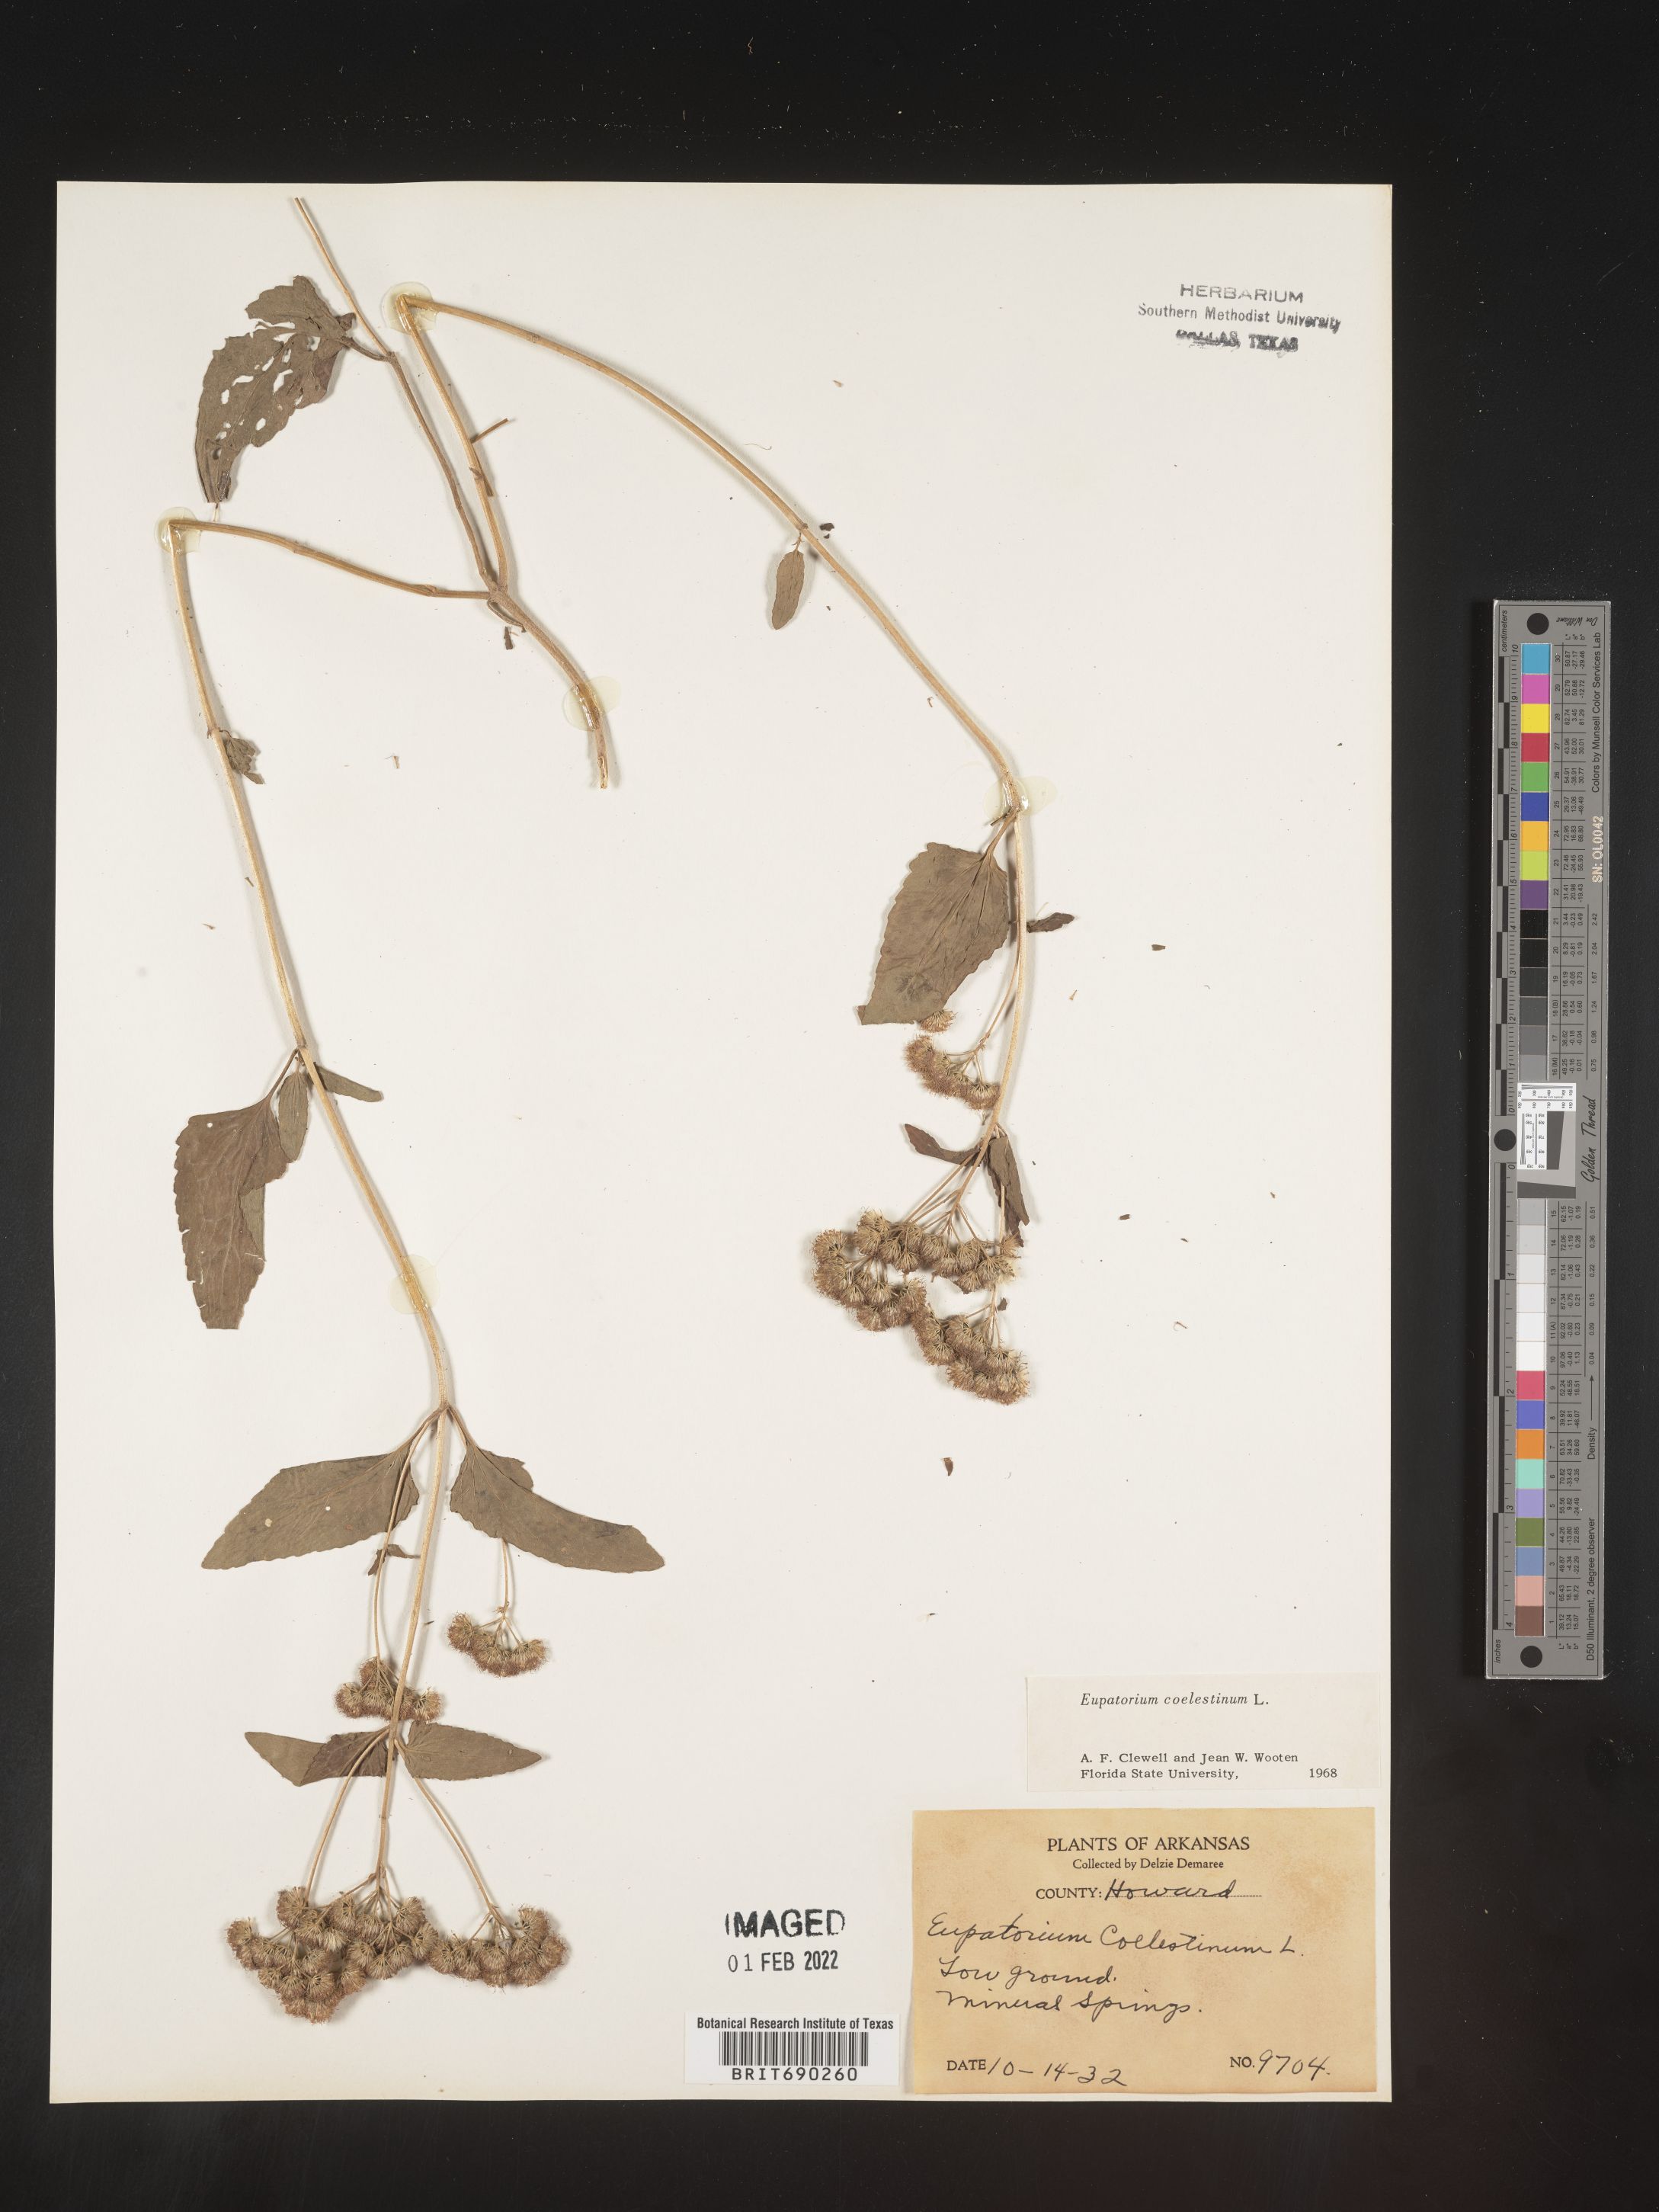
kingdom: Plantae
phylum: Tracheophyta
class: Magnoliopsida
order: Asterales
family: Asteraceae
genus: Conoclinium
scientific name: Conoclinium coelestinum
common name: Blue mistflower
